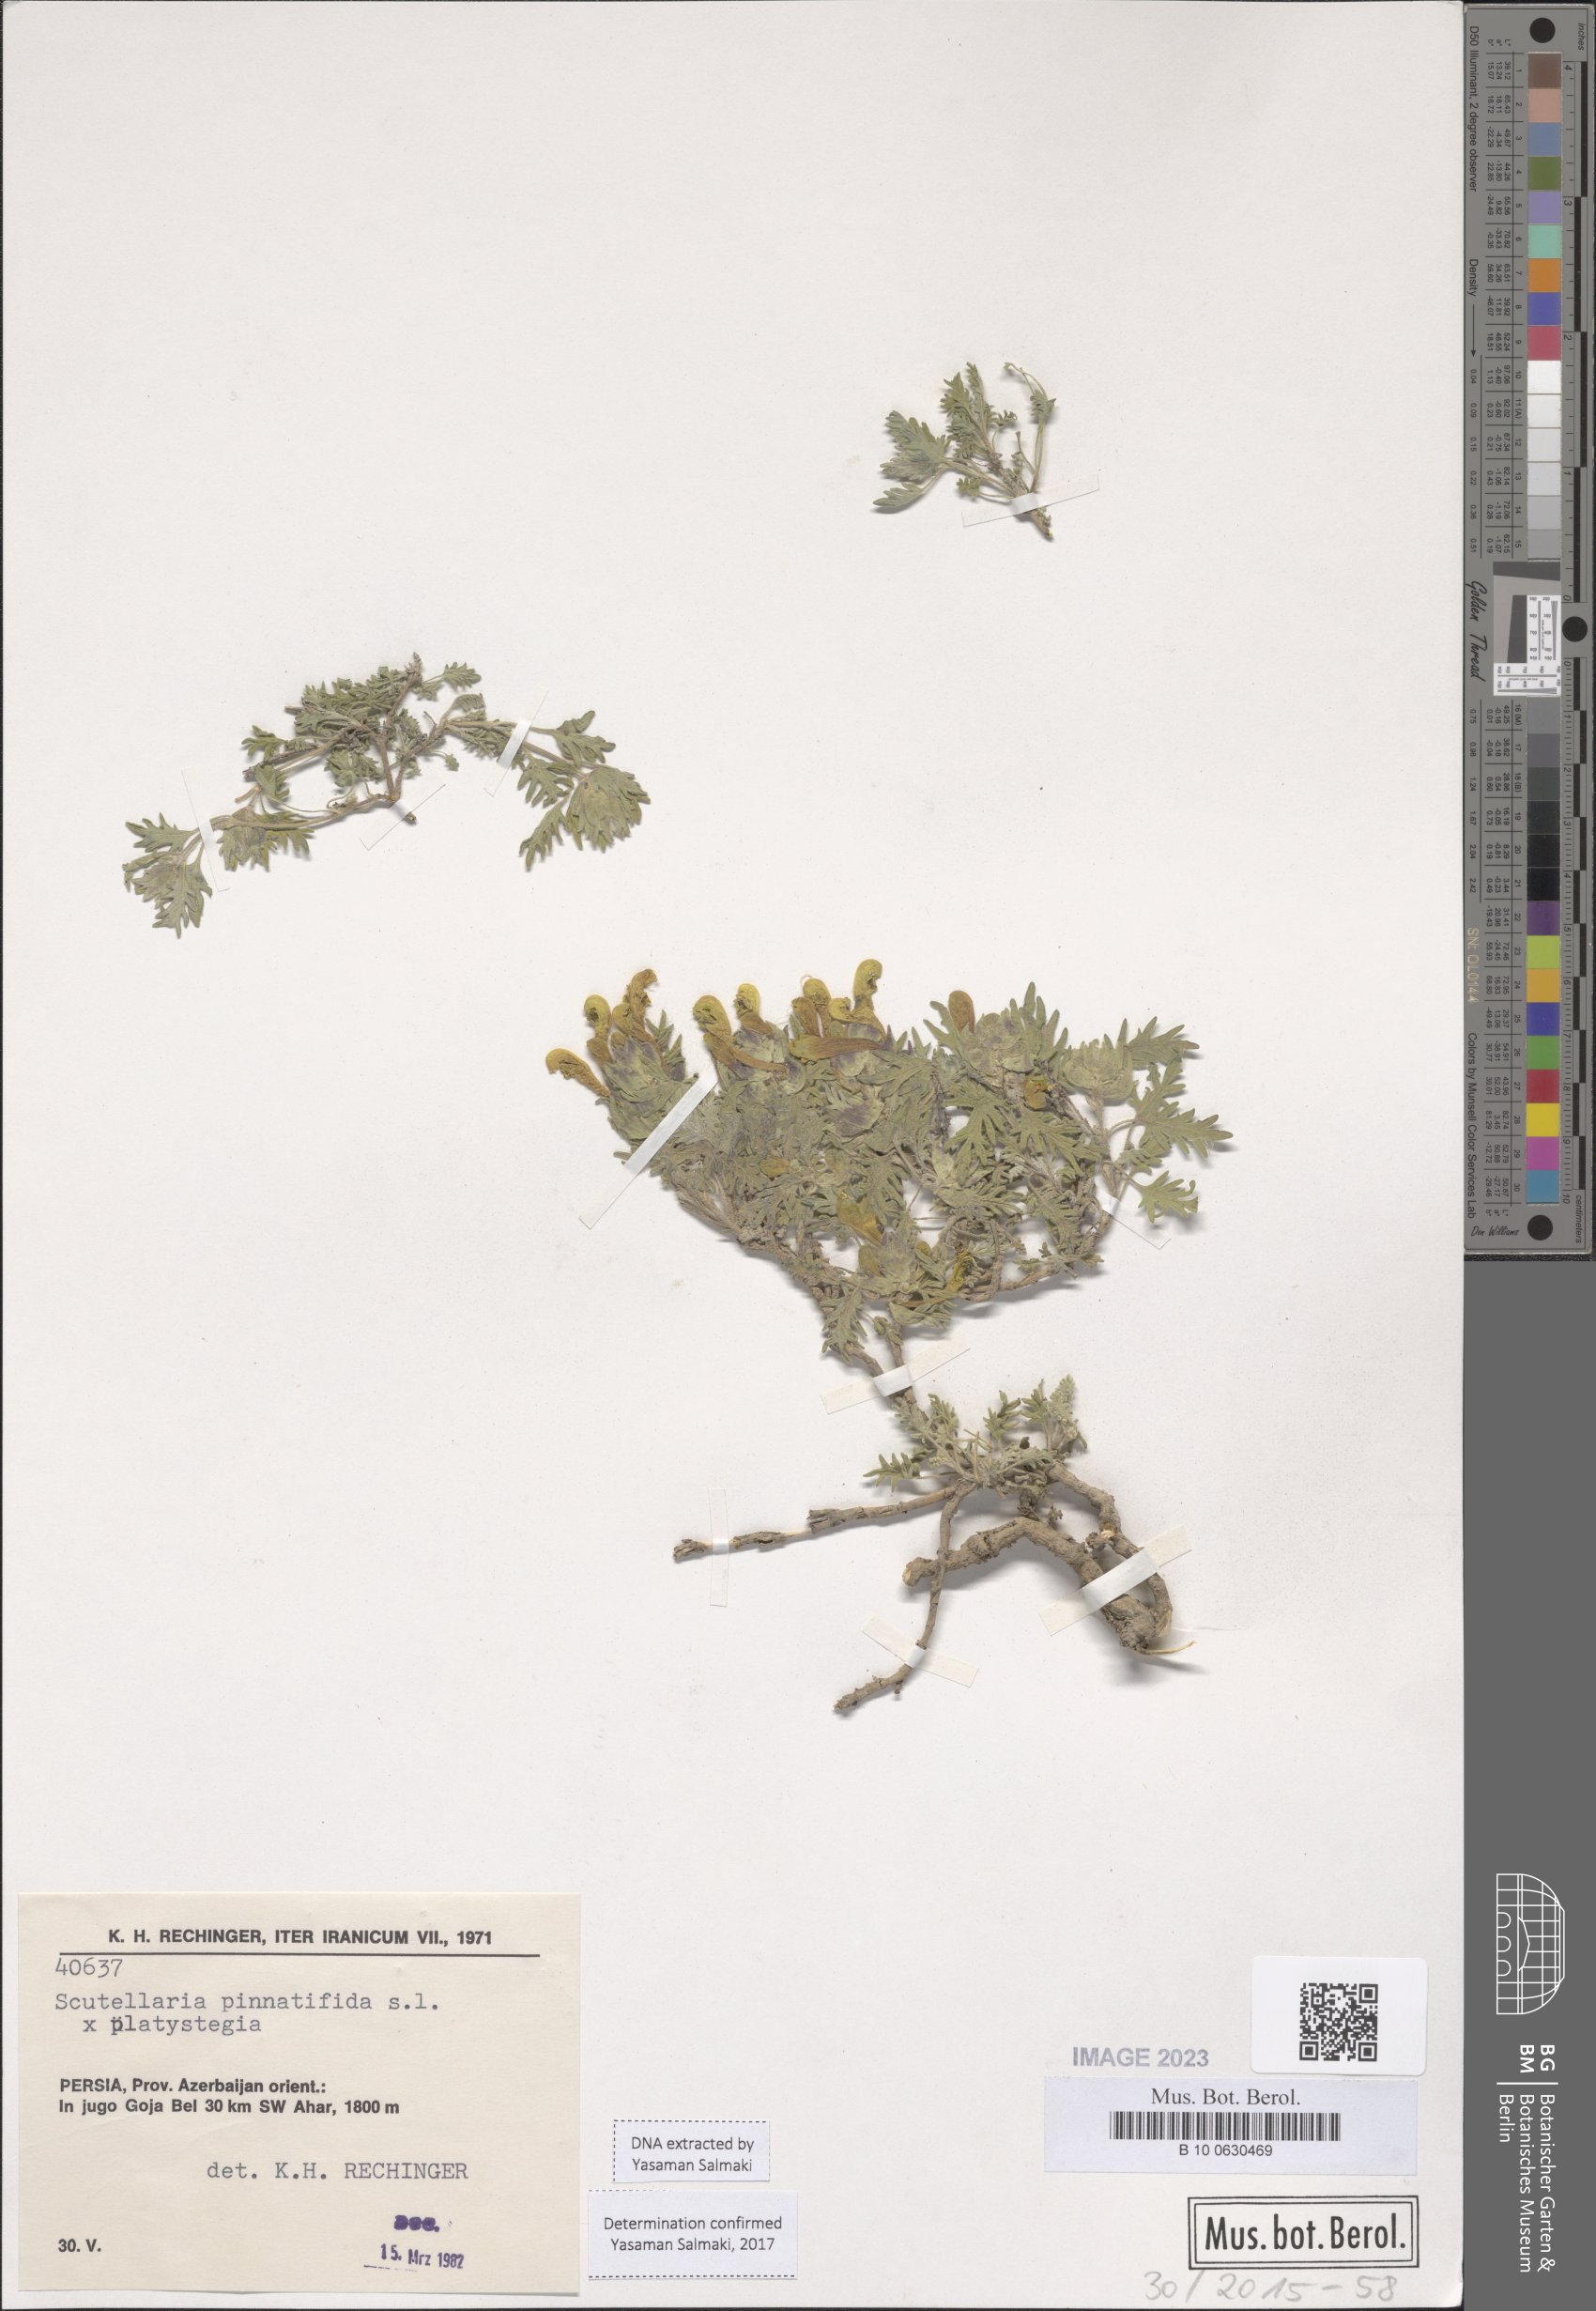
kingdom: Plantae
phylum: Tracheophyta
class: Magnoliopsida
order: Lamiales
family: Lamiaceae
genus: Scutellaria
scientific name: Scutellaria pinnatifida
